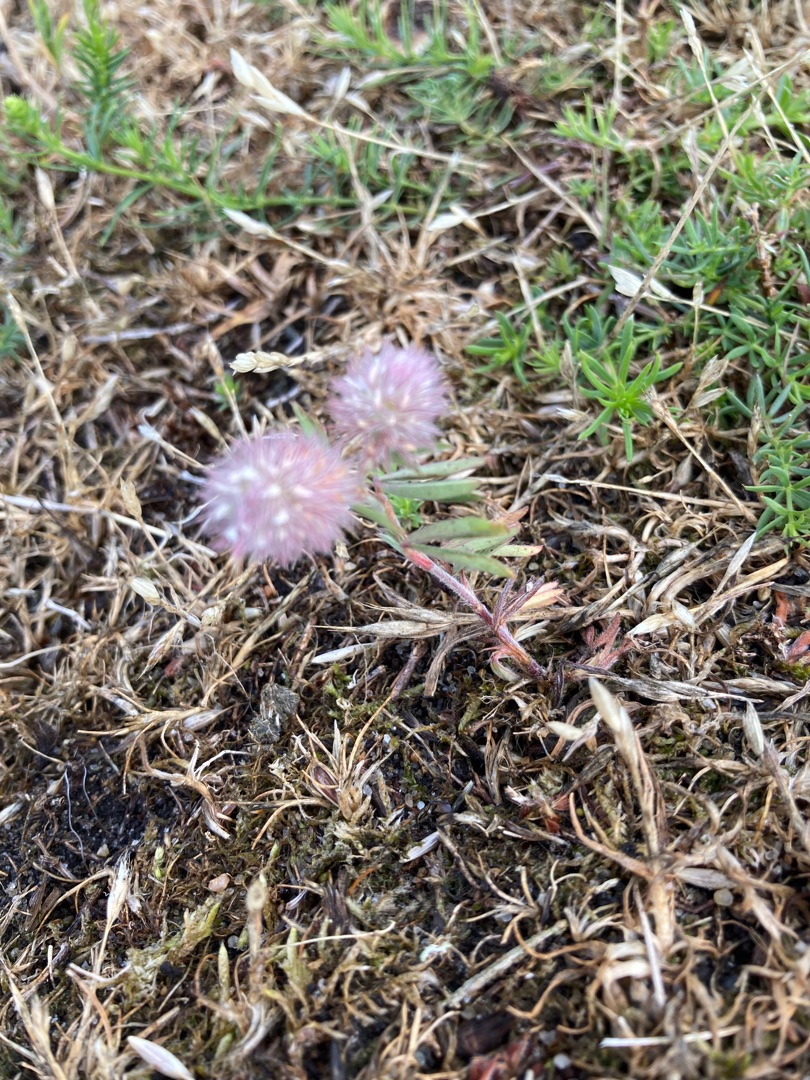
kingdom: Plantae
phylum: Tracheophyta
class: Magnoliopsida
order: Fabales
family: Fabaceae
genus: Trifolium
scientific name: Trifolium arvense
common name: Hare-kløver
